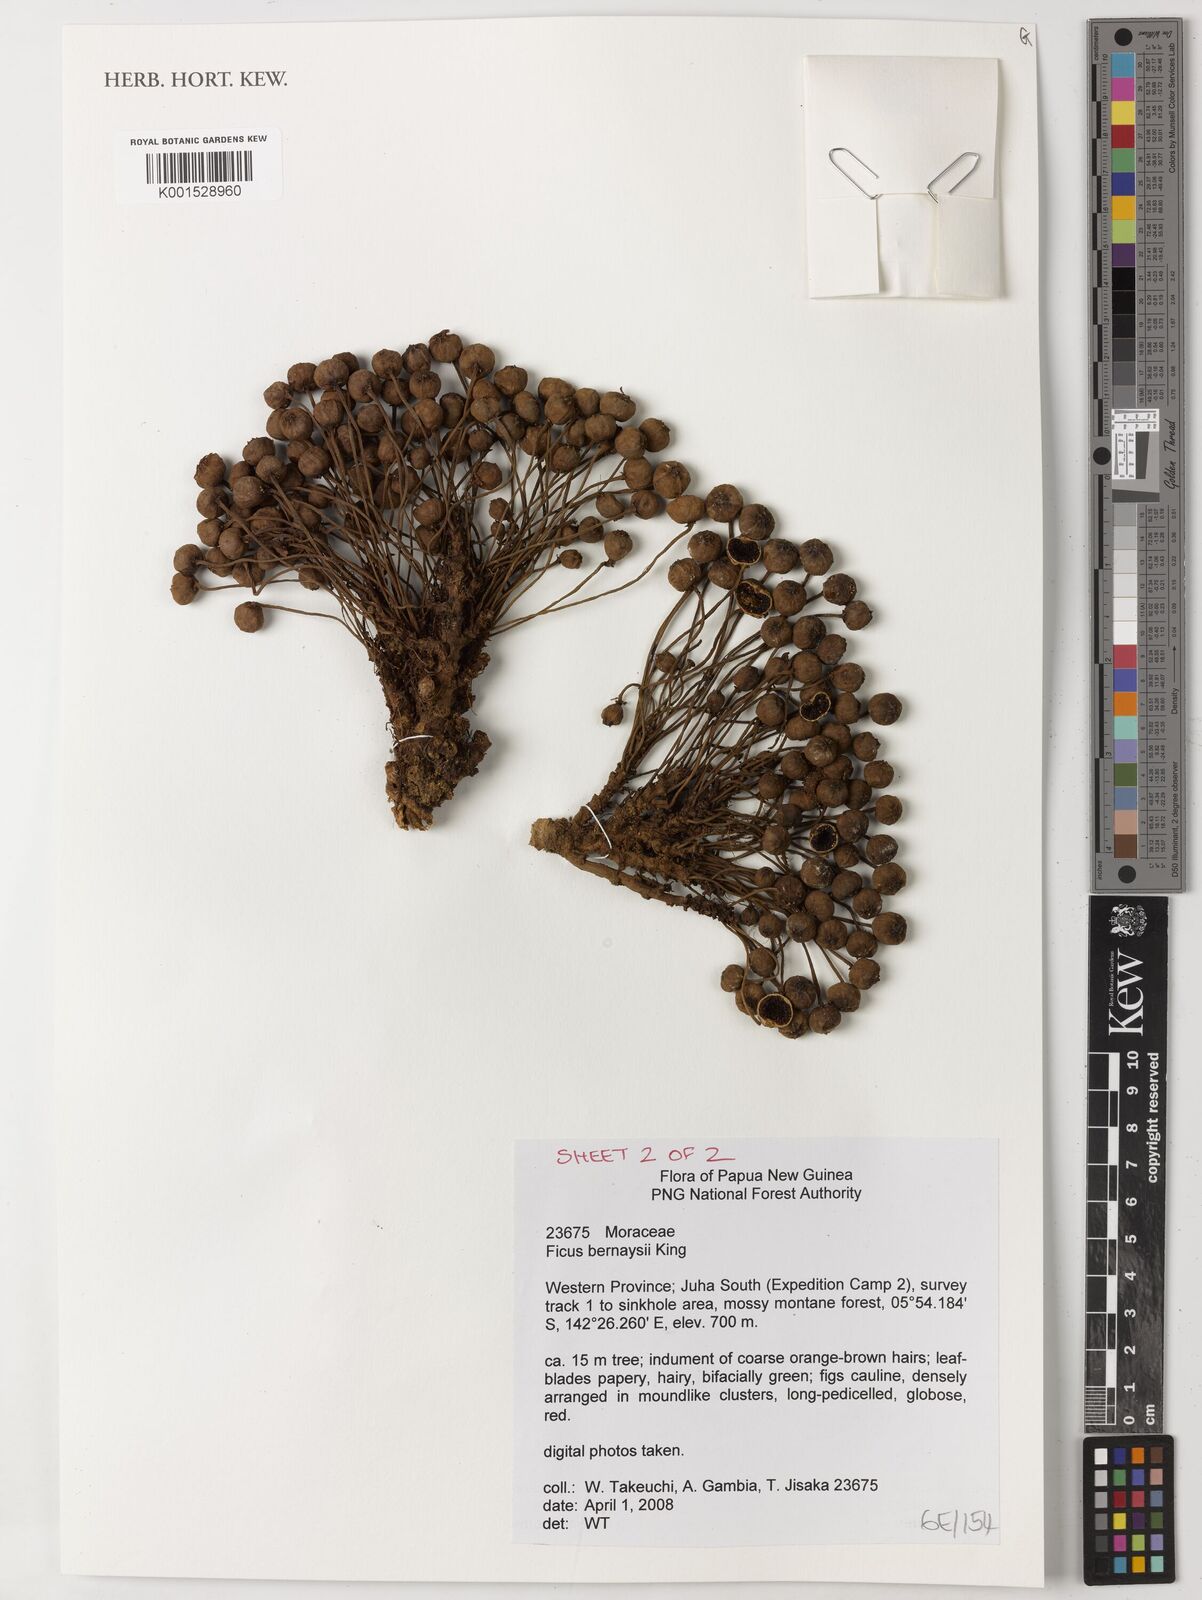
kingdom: Plantae
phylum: Tracheophyta
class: Magnoliopsida
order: Rosales
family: Moraceae
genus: Ficus
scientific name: Ficus bernaysii
